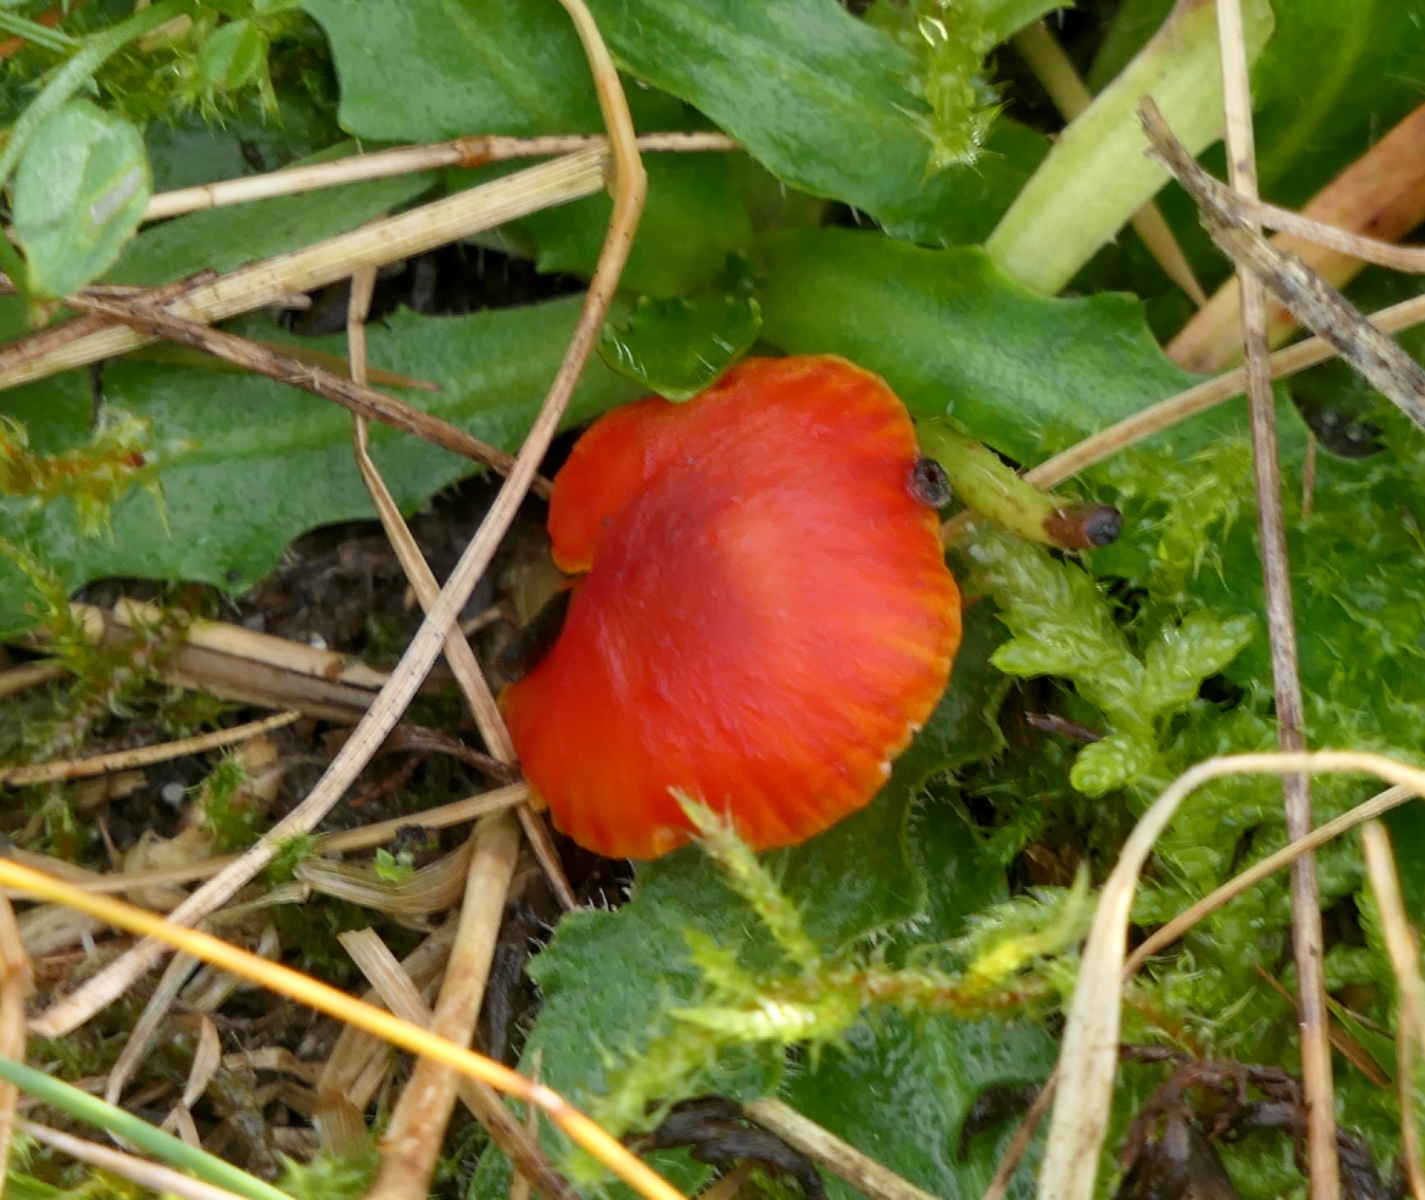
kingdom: Fungi
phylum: Basidiomycota
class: Agaricomycetes
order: Agaricales
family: Hygrophoraceae
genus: Hygrocybe
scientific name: Hygrocybe phaeococcinea
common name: sortdugget vokshat
